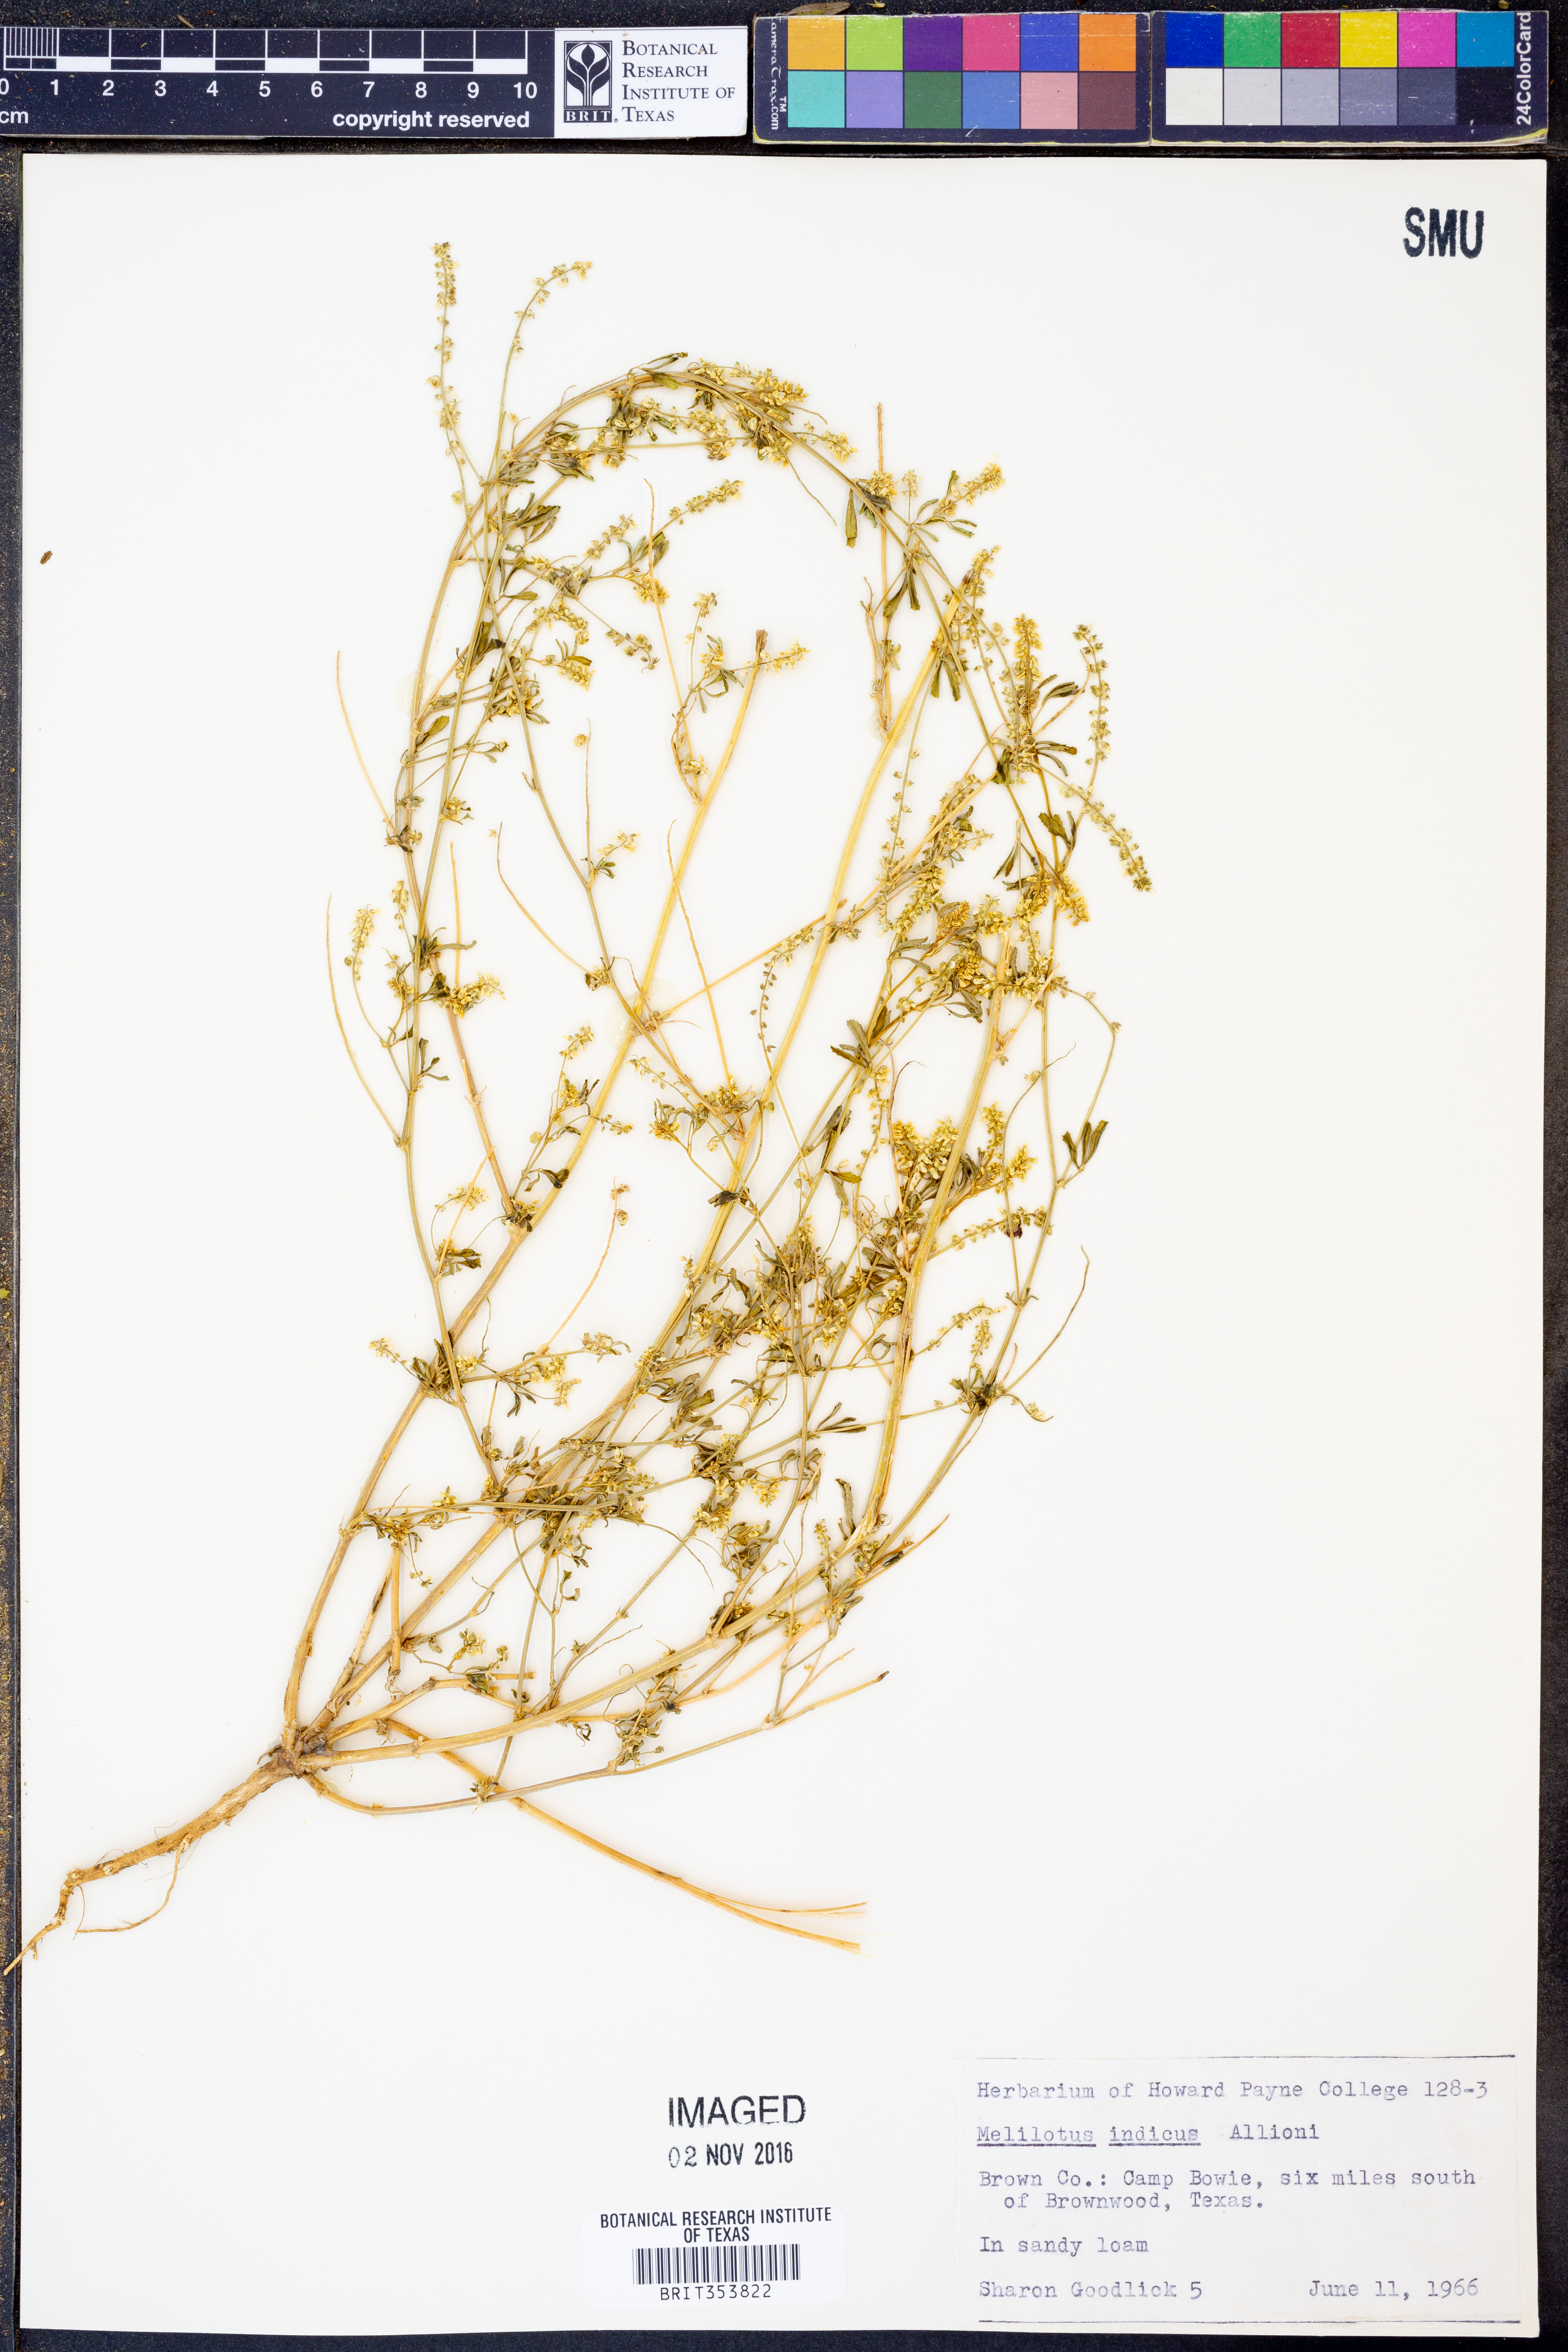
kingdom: Plantae
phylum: Tracheophyta
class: Magnoliopsida
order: Fabales
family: Fabaceae
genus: Melilotus
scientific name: Melilotus indicus
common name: Small melilot
